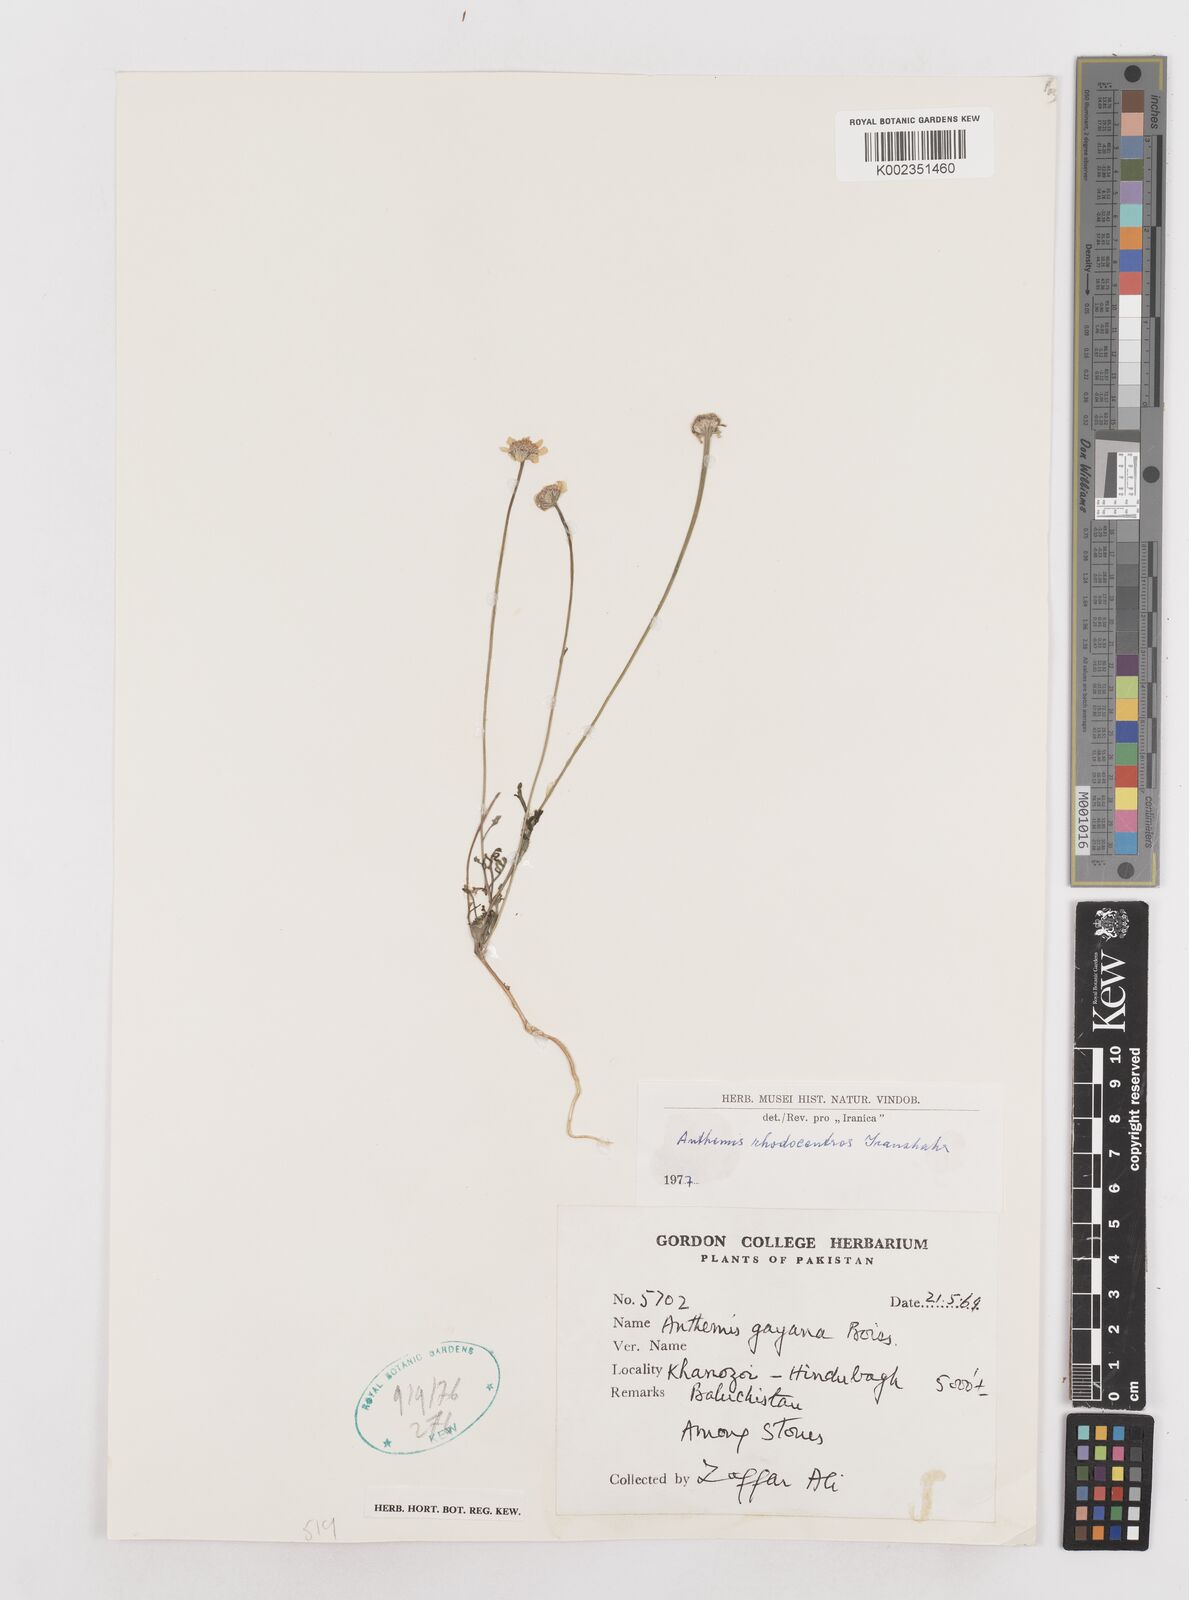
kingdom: Plantae
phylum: Tracheophyta
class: Magnoliopsida
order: Asterales
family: Asteraceae
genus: Anthemis
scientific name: Anthemis gayana
